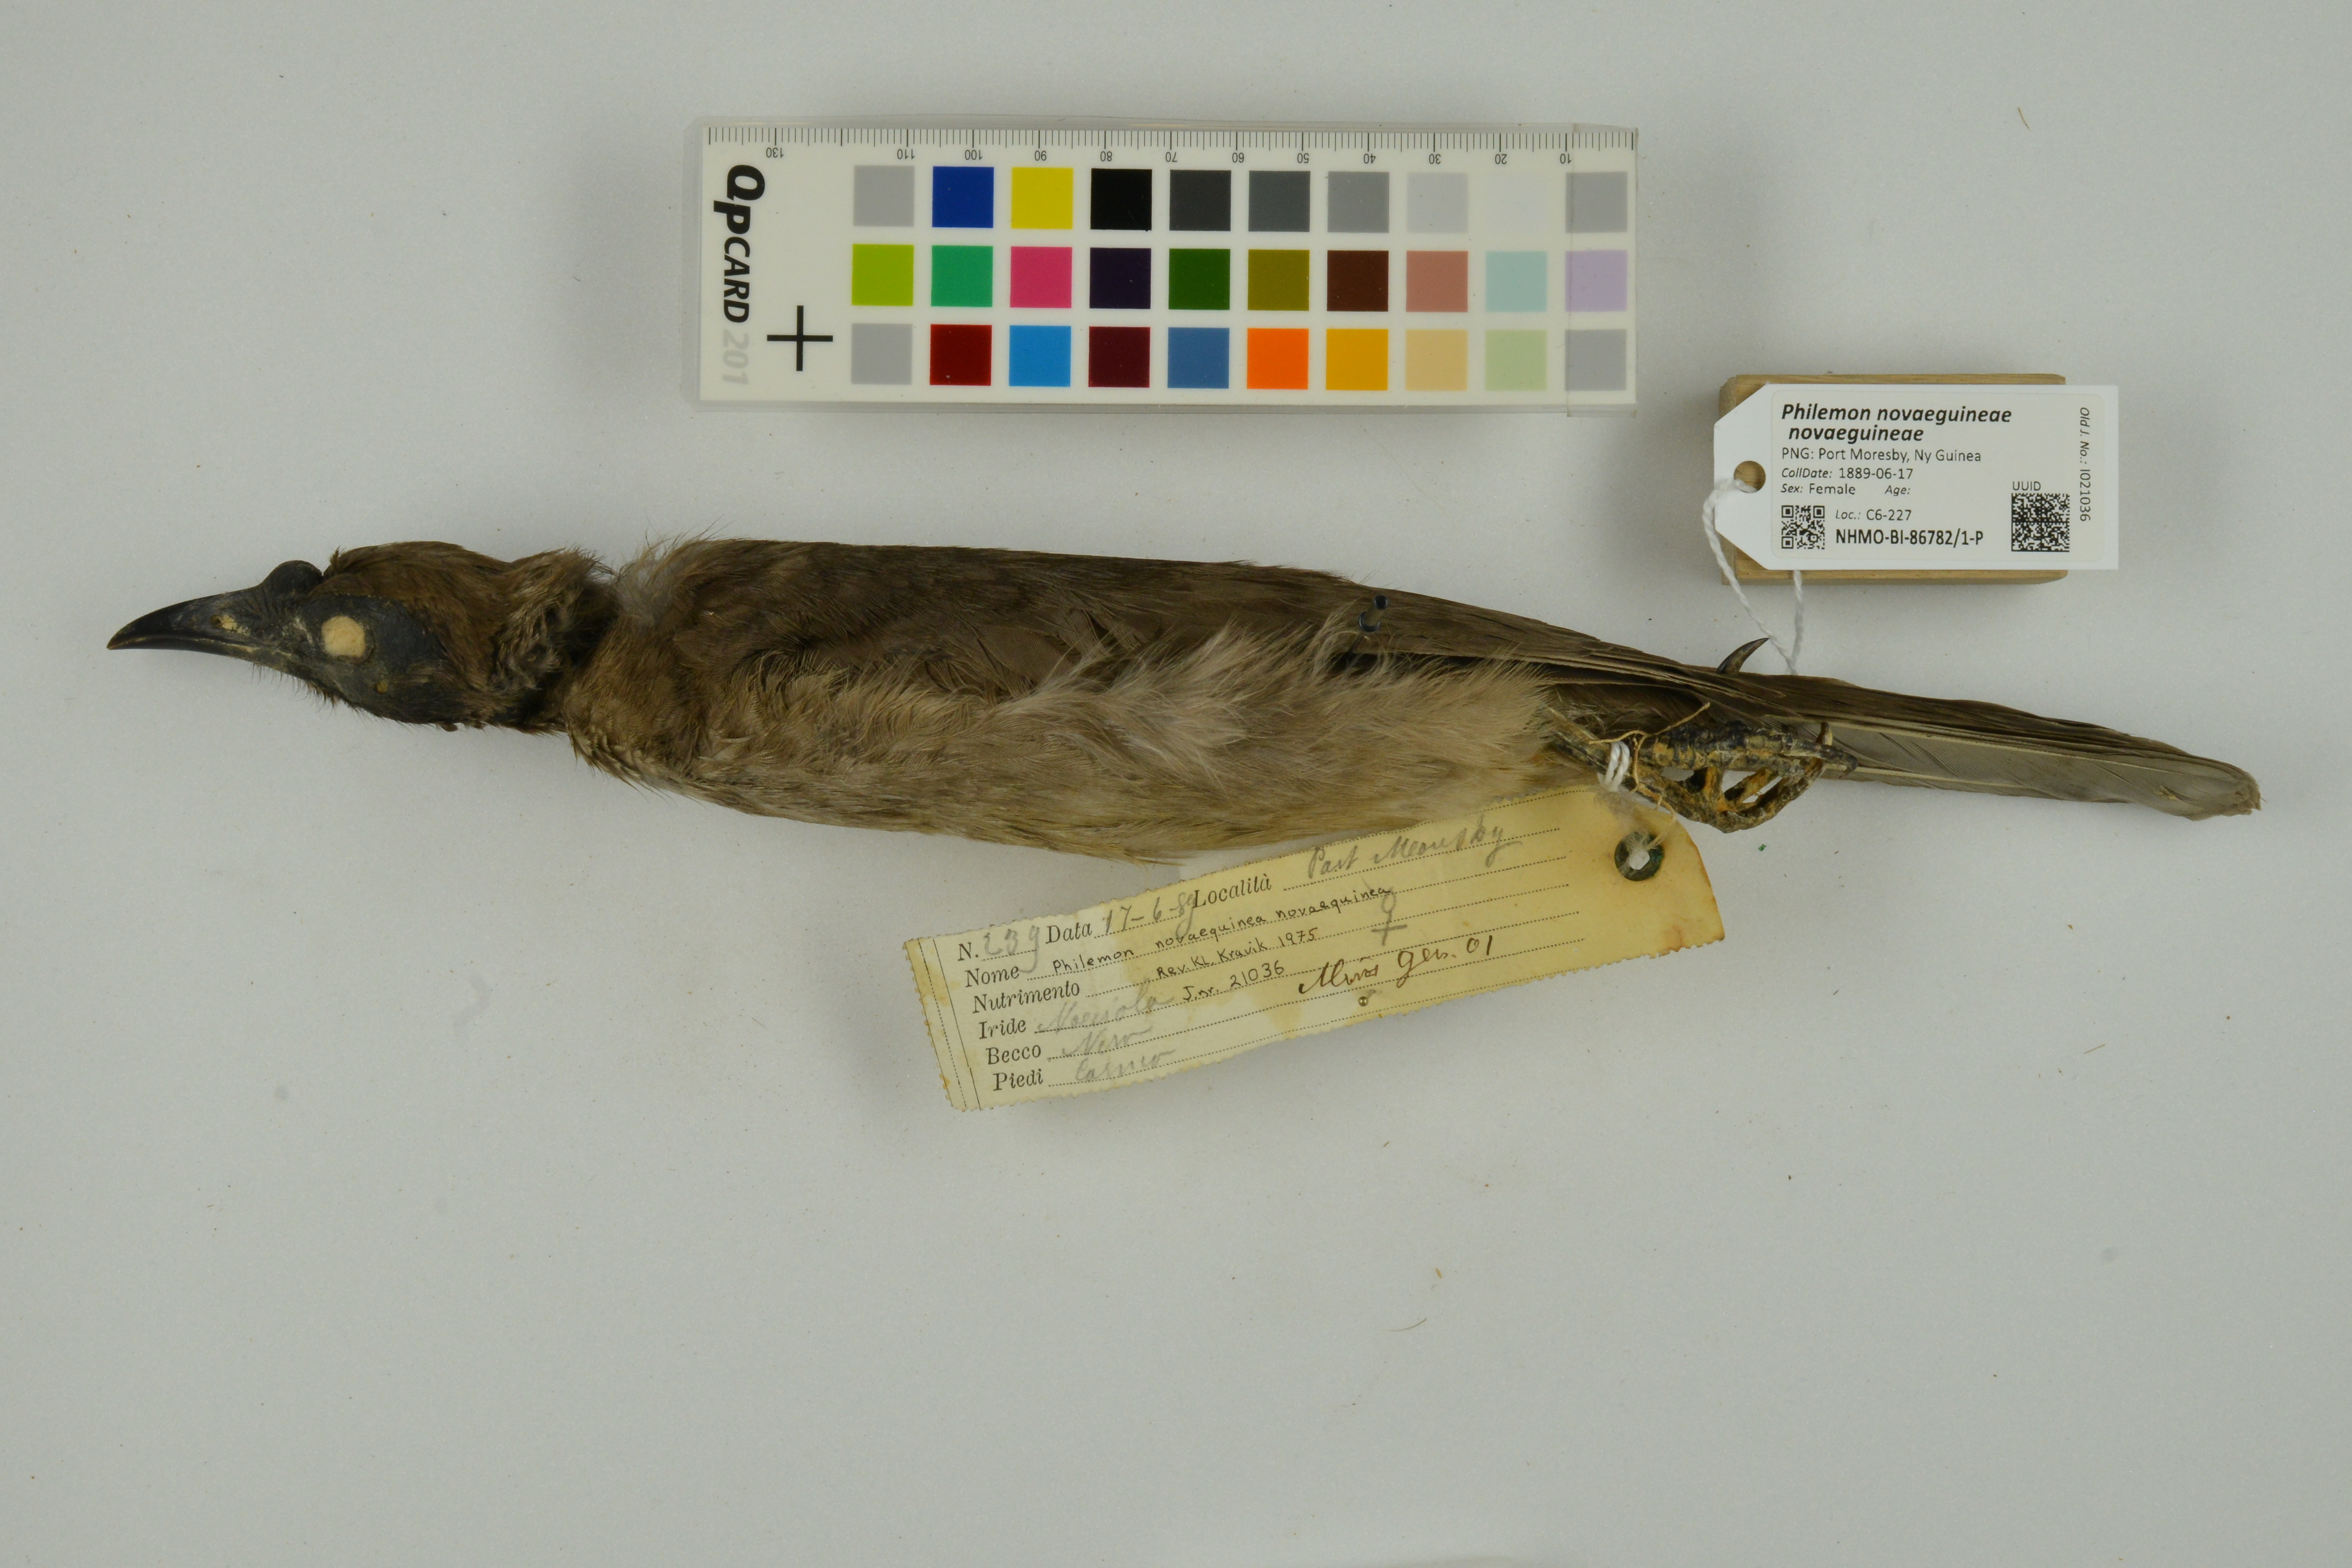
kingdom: Animalia
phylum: Chordata
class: Aves
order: Passeriformes
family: Meliphagidae
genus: Philemon
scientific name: Philemon novaeguineae
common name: New guinea friarbird
